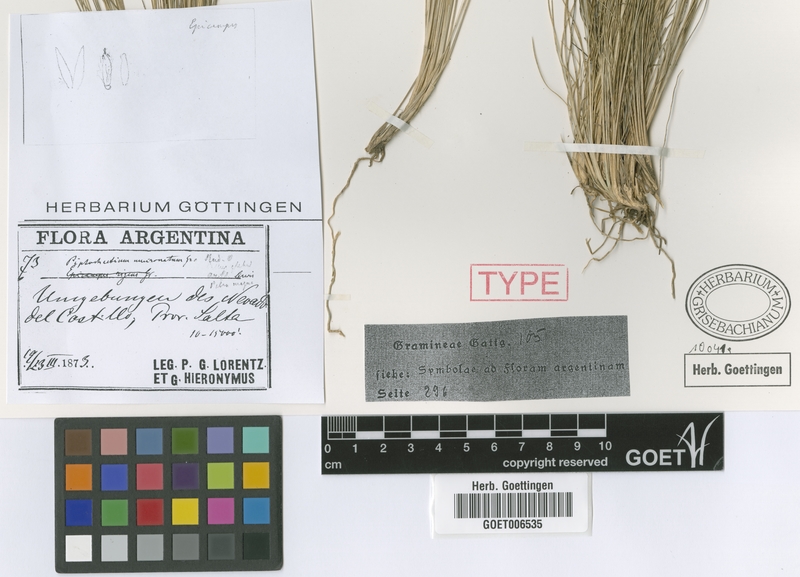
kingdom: Plantae
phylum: Tracheophyta
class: Liliopsida
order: Poales
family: Poaceae
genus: Nassella
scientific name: Nassella mucronata
